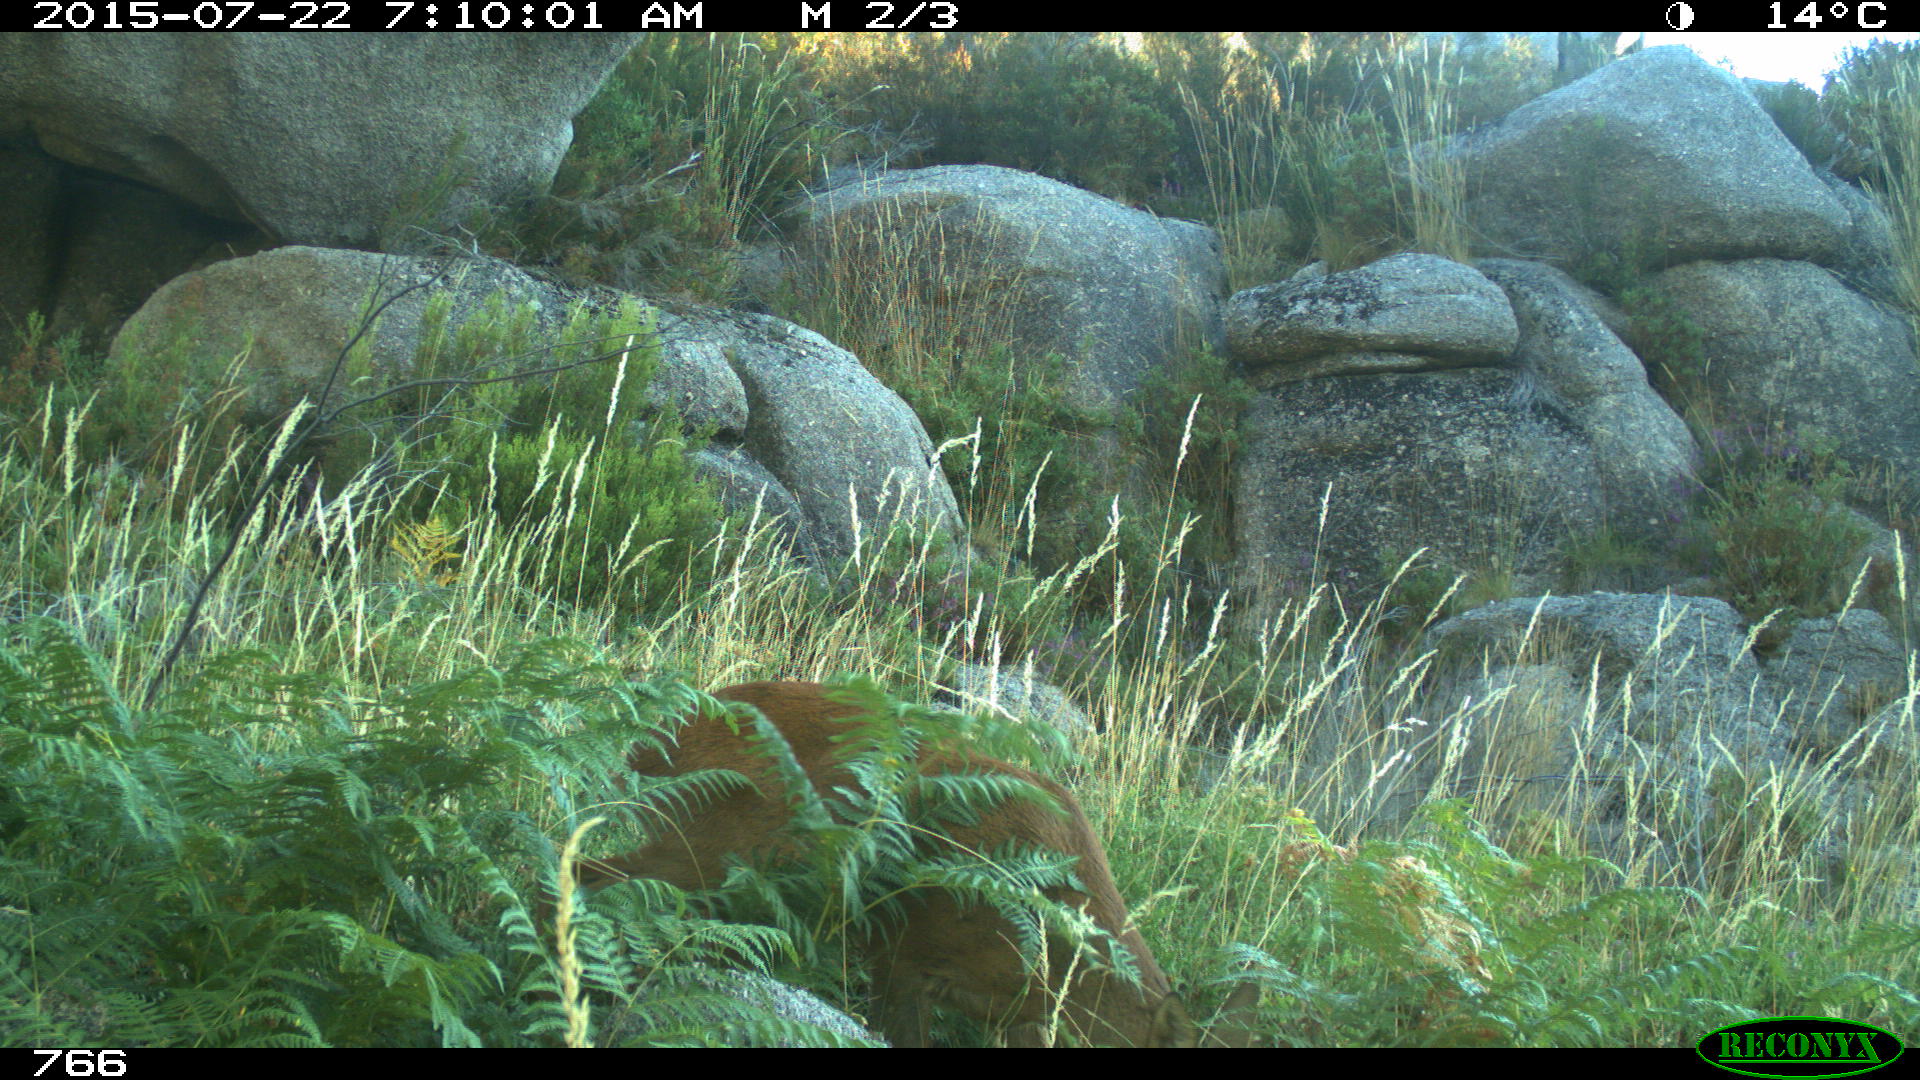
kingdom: Animalia
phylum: Chordata
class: Mammalia
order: Artiodactyla
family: Cervidae
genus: Capreolus
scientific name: Capreolus capreolus
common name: Western roe deer
